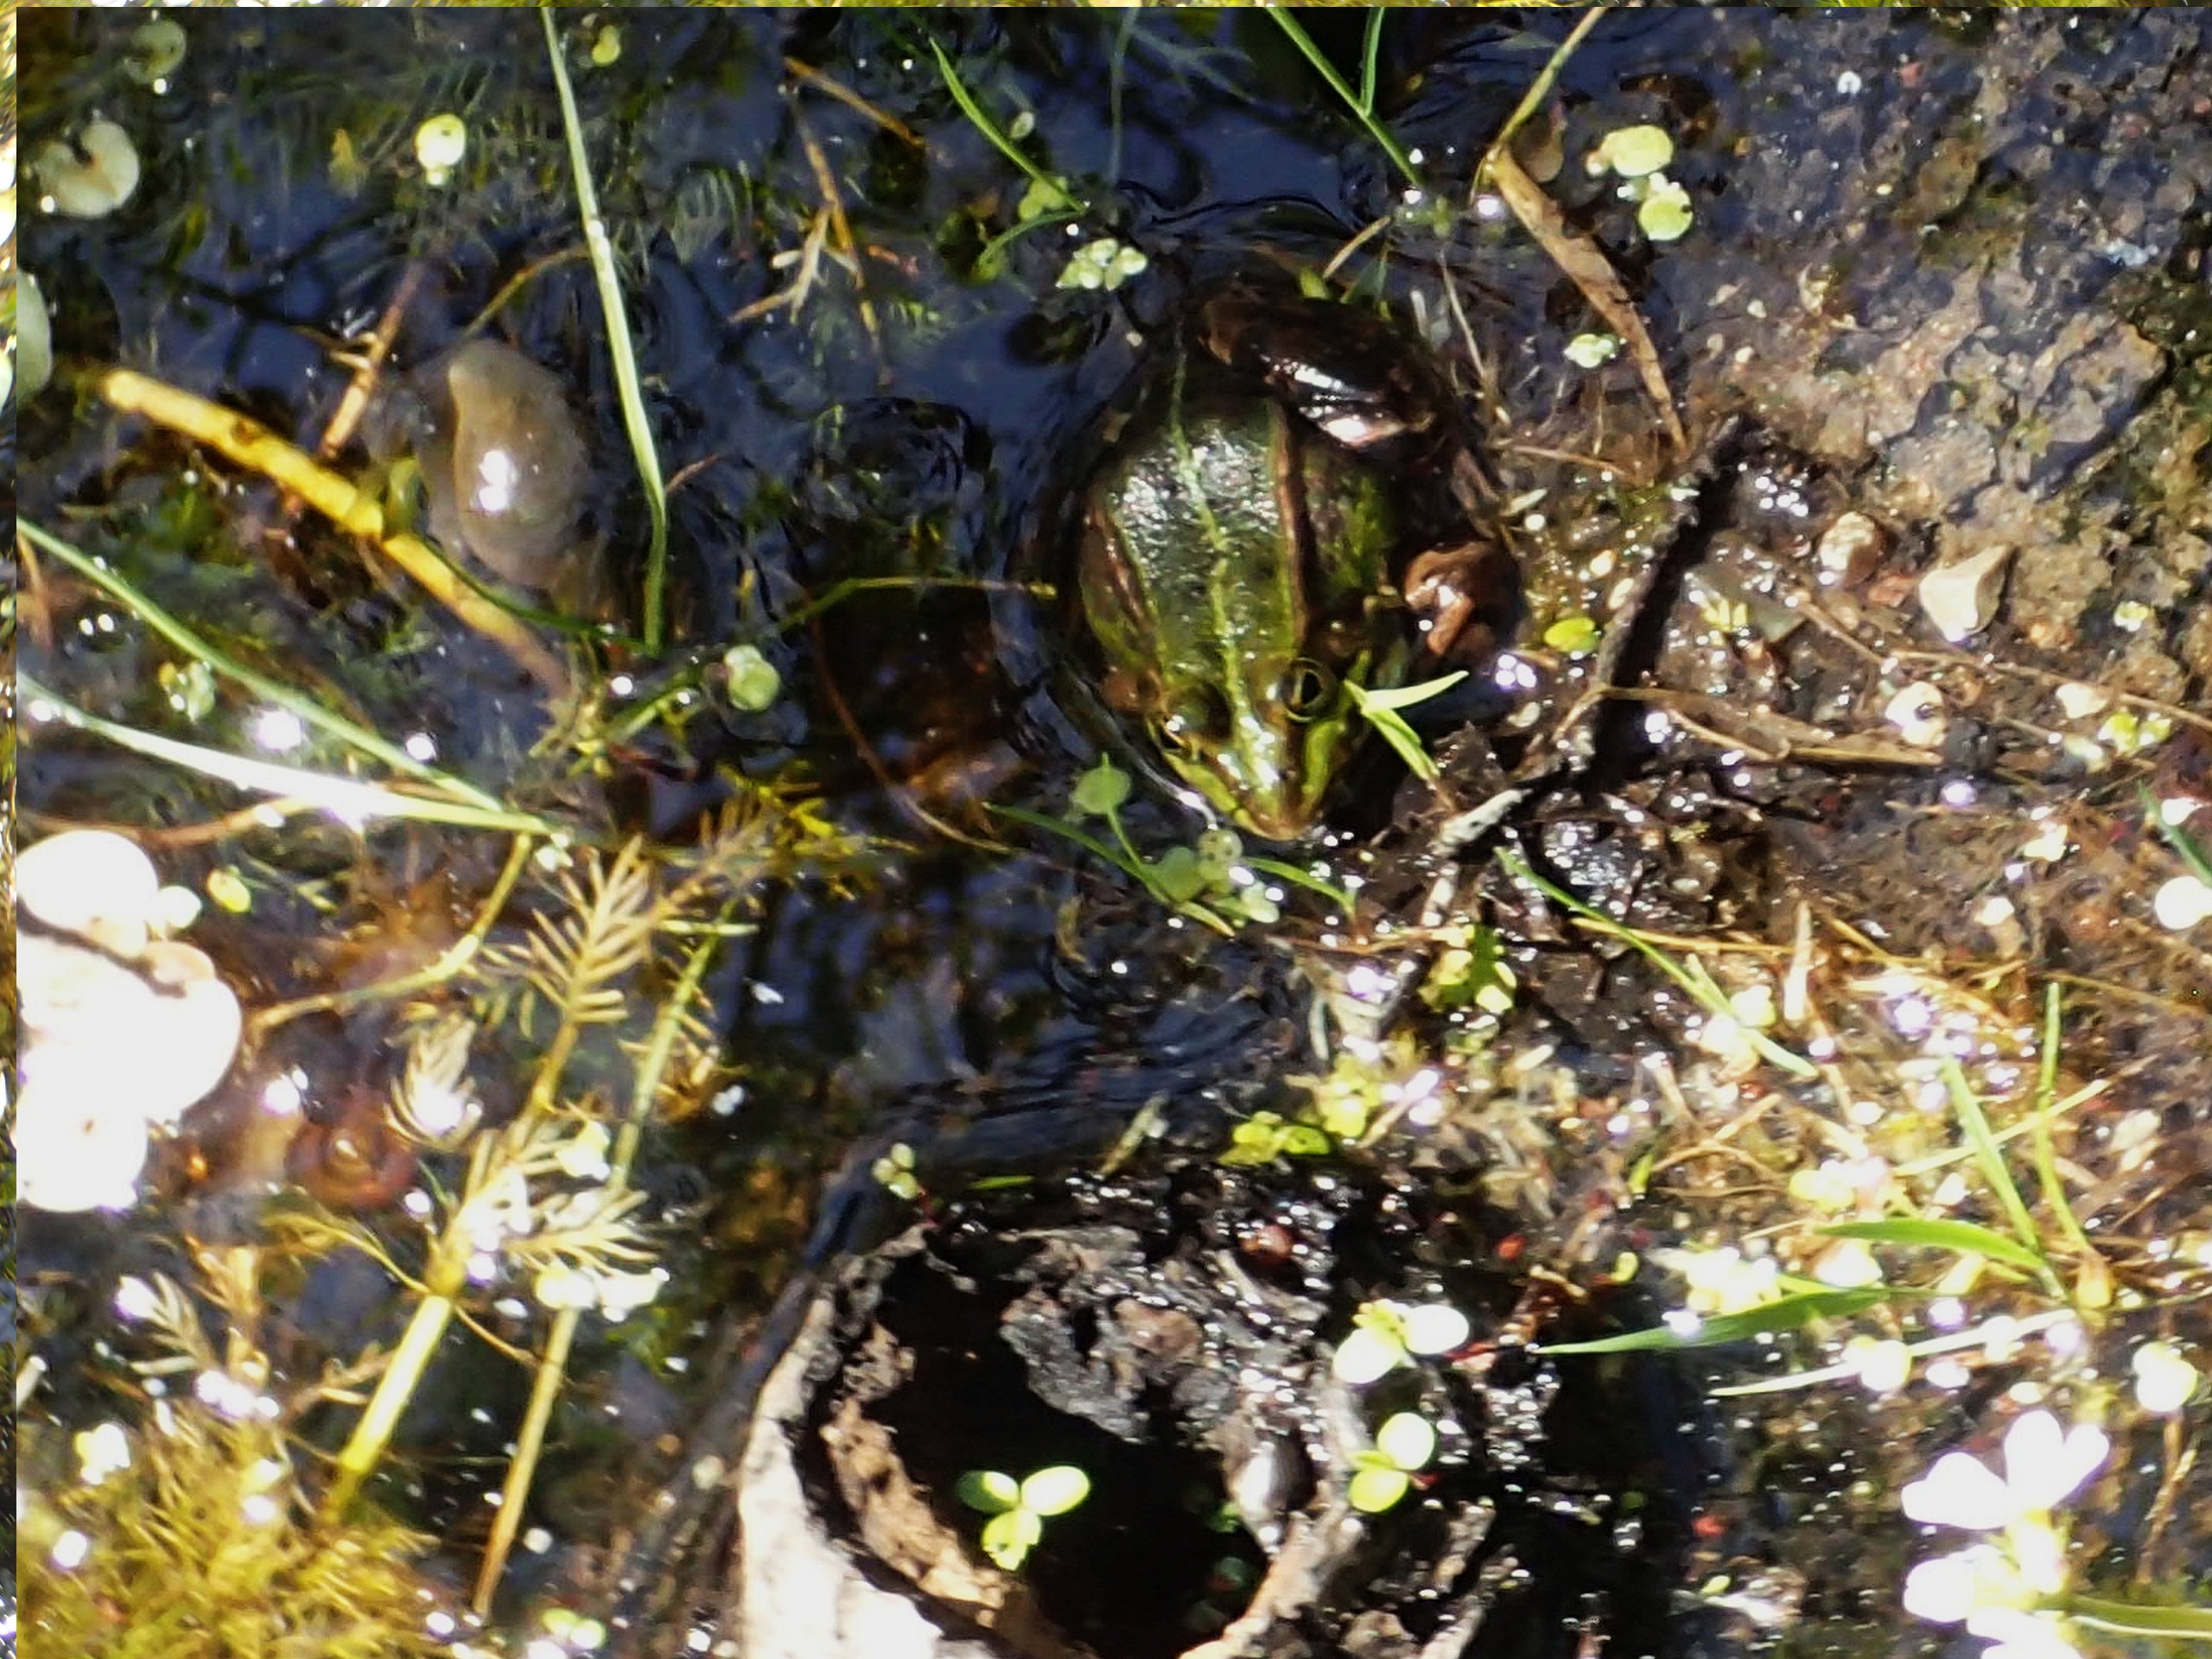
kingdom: Animalia
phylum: Chordata
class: Amphibia
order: Anura
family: Ranidae
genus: Pelophylax
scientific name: Pelophylax lessonae
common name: Grøn frø
